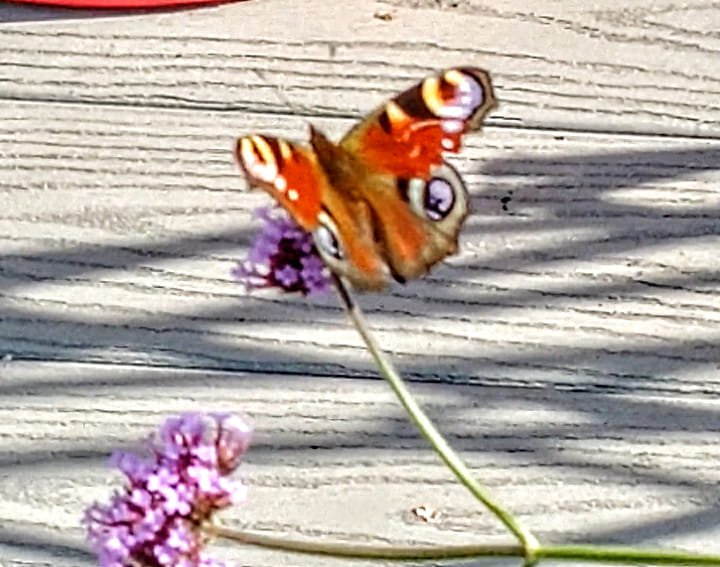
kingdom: Animalia
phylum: Arthropoda
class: Insecta
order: Lepidoptera
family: Nymphalidae
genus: Aglais
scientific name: Aglais io
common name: European Peacock
